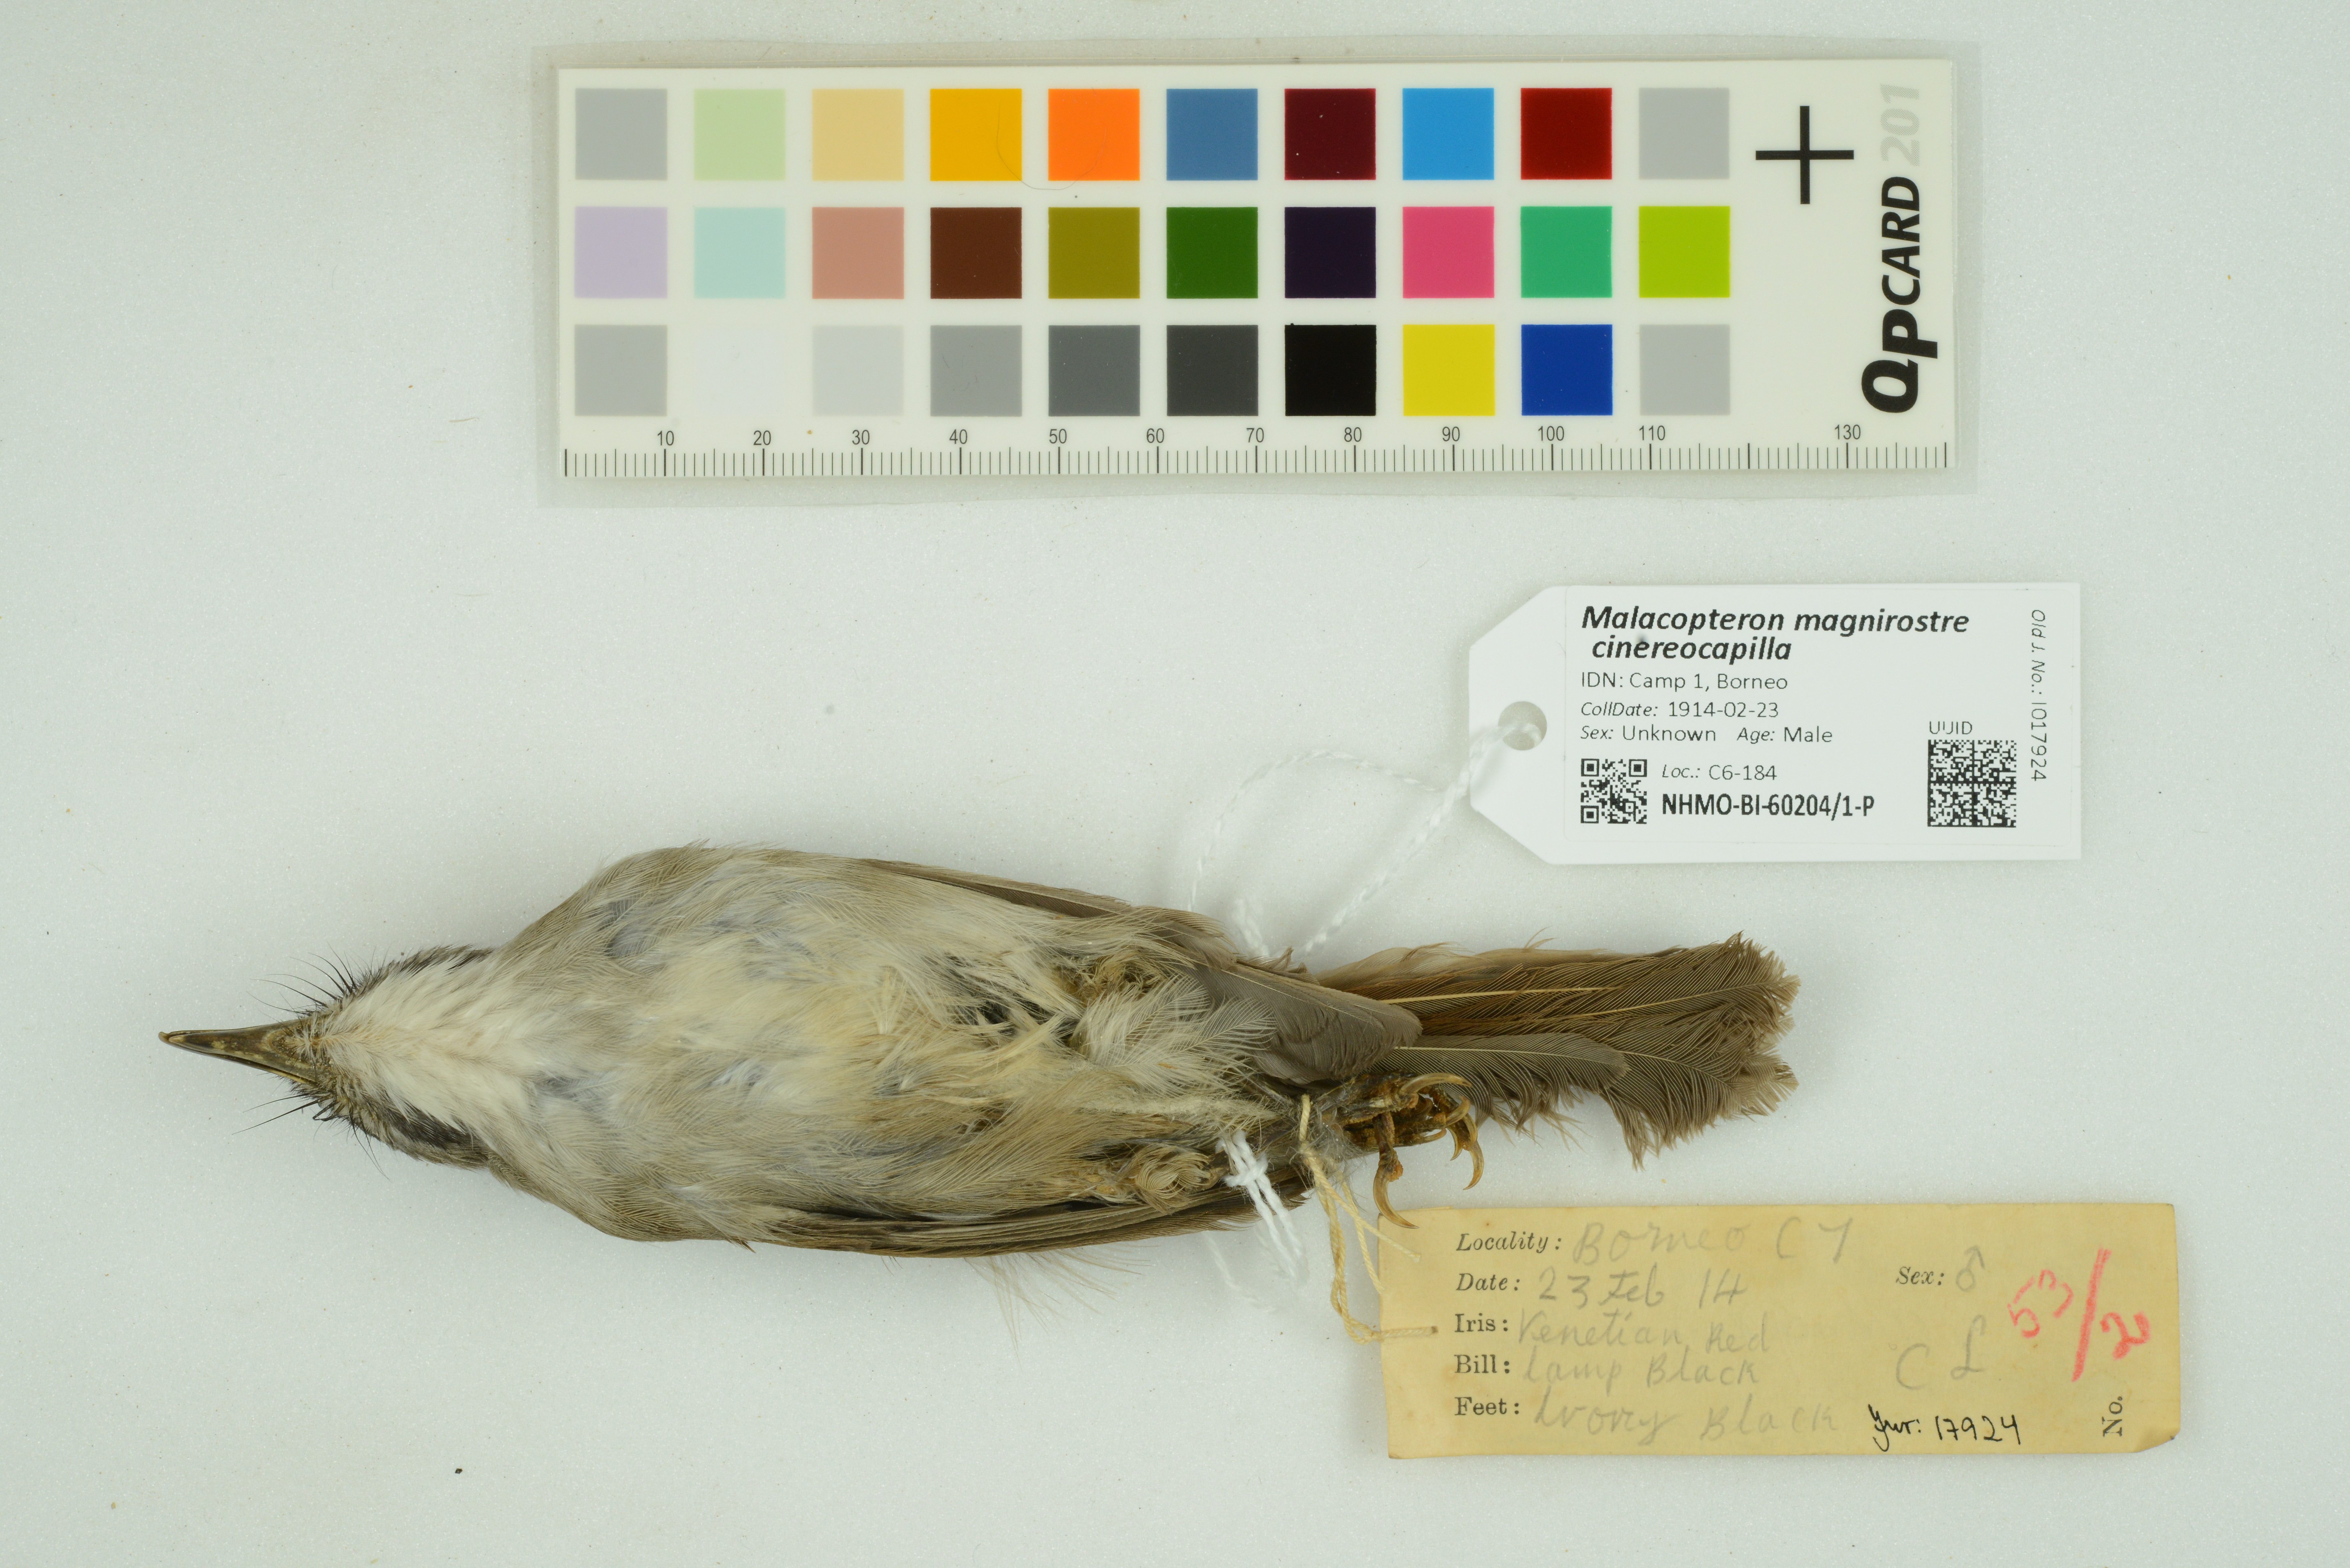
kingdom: Animalia
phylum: Chordata
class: Aves
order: Passeriformes
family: Pellorneidae
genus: Malacopteron
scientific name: Malacopteron magnirostre
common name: Moustached babbler
